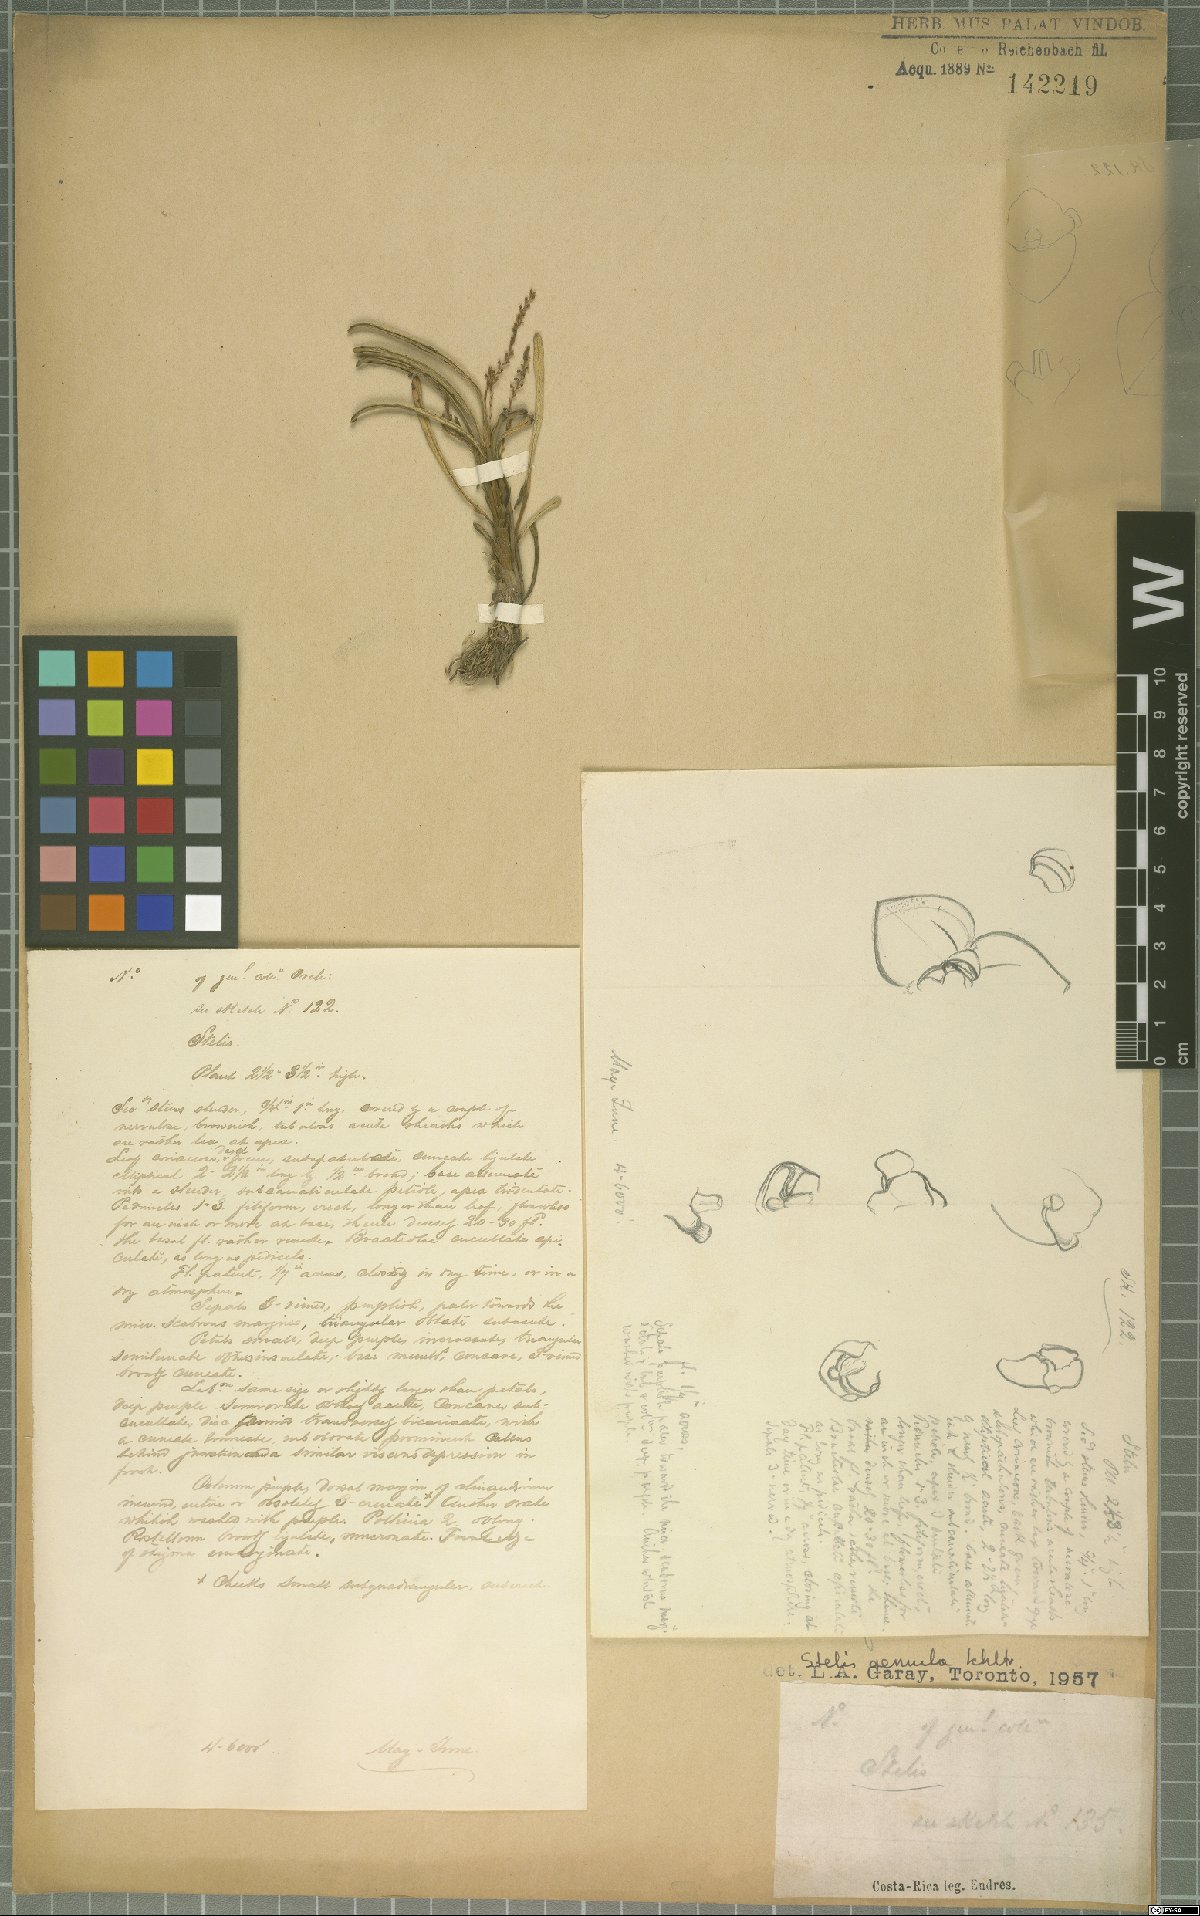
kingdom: Plantae
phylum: Tracheophyta
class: Liliopsida
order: Asparagales
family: Orchidaceae
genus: Stelis
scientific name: Stelis aemula
